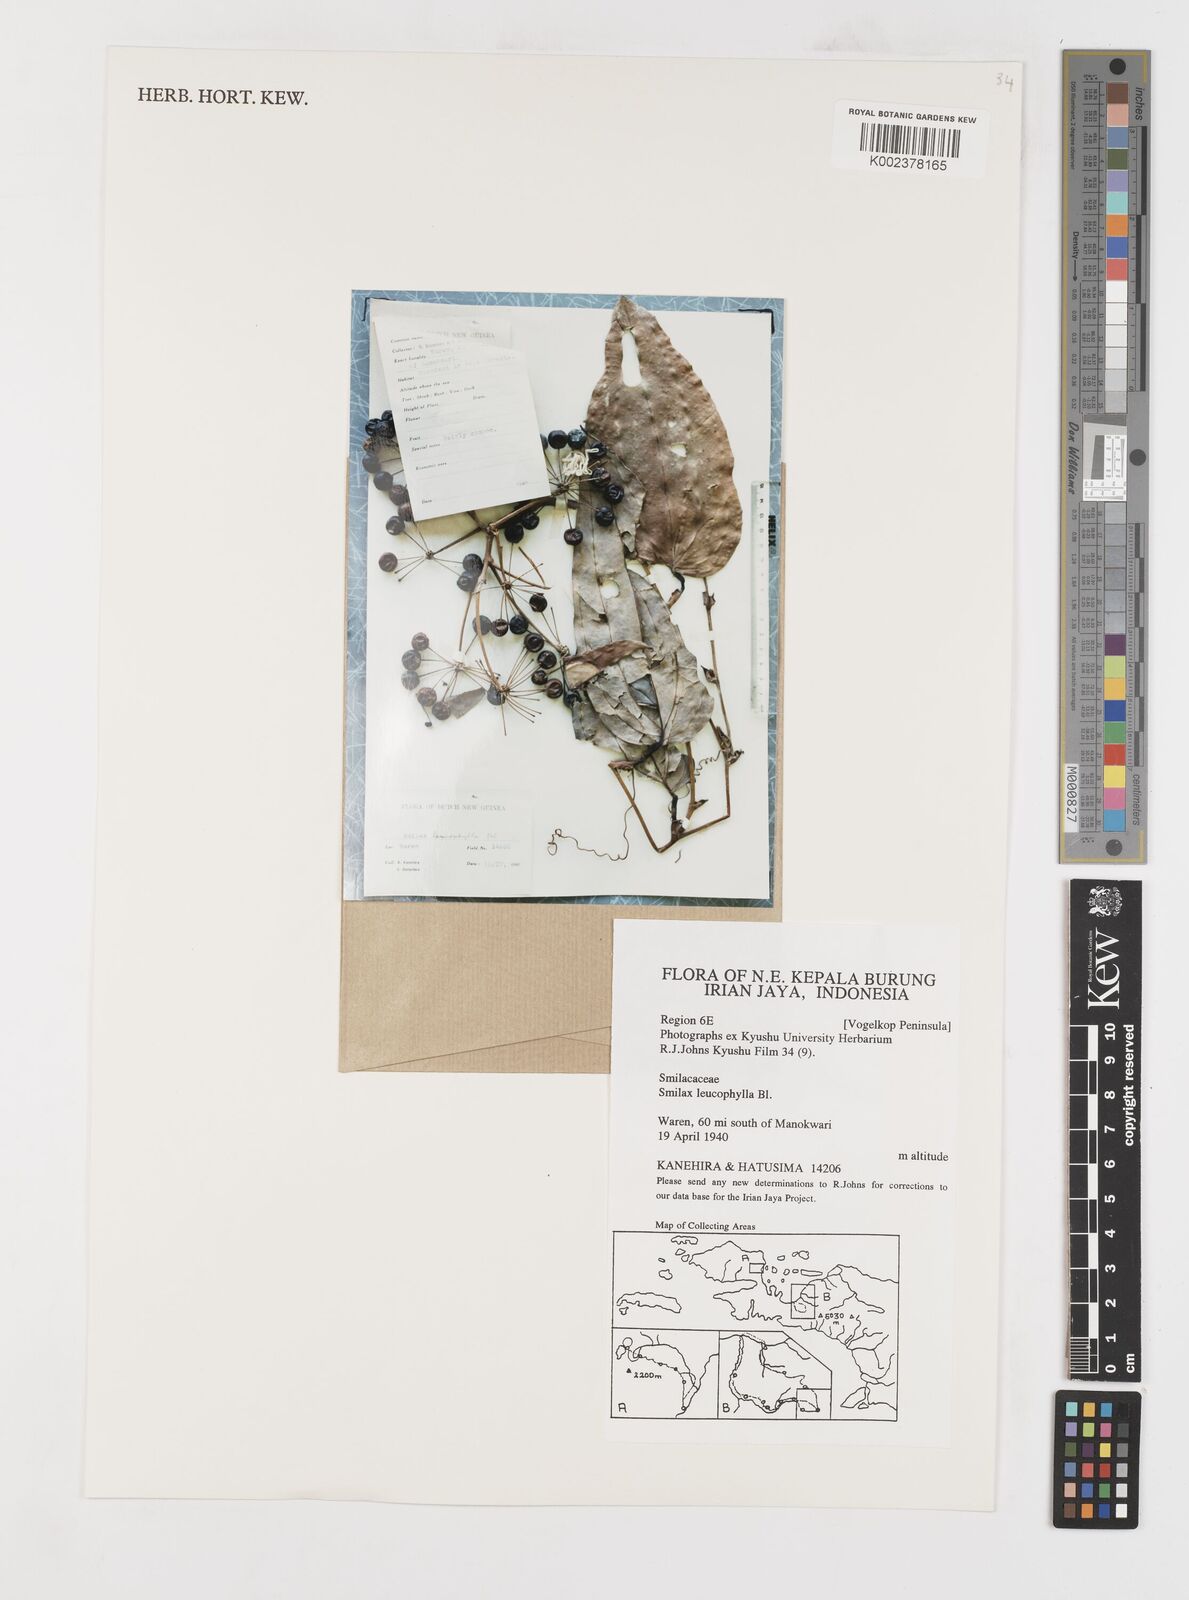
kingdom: Plantae
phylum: Tracheophyta
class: Liliopsida
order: Liliales
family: Smilacaceae
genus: Smilax
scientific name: Smilax leucophylla
